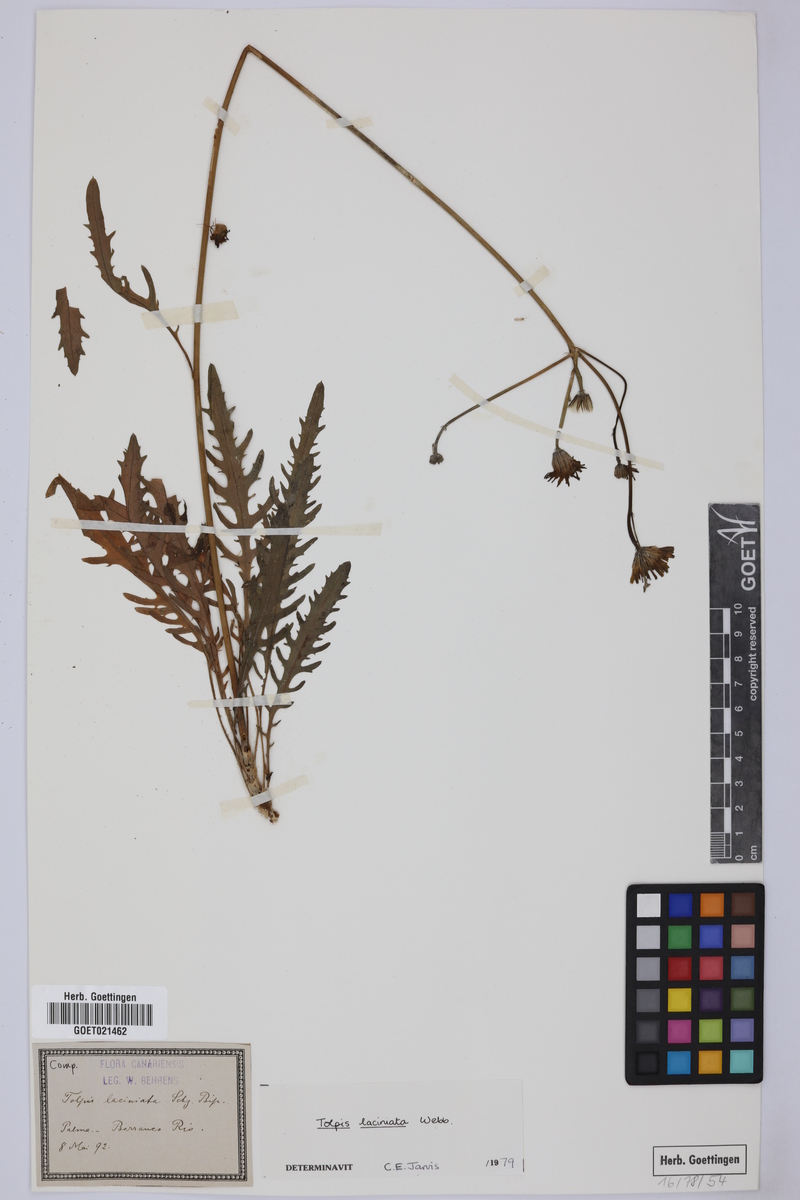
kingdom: Plantae
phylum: Tracheophyta
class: Magnoliopsida
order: Asterales
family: Asteraceae
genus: Tolpis
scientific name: Tolpis laciniata
